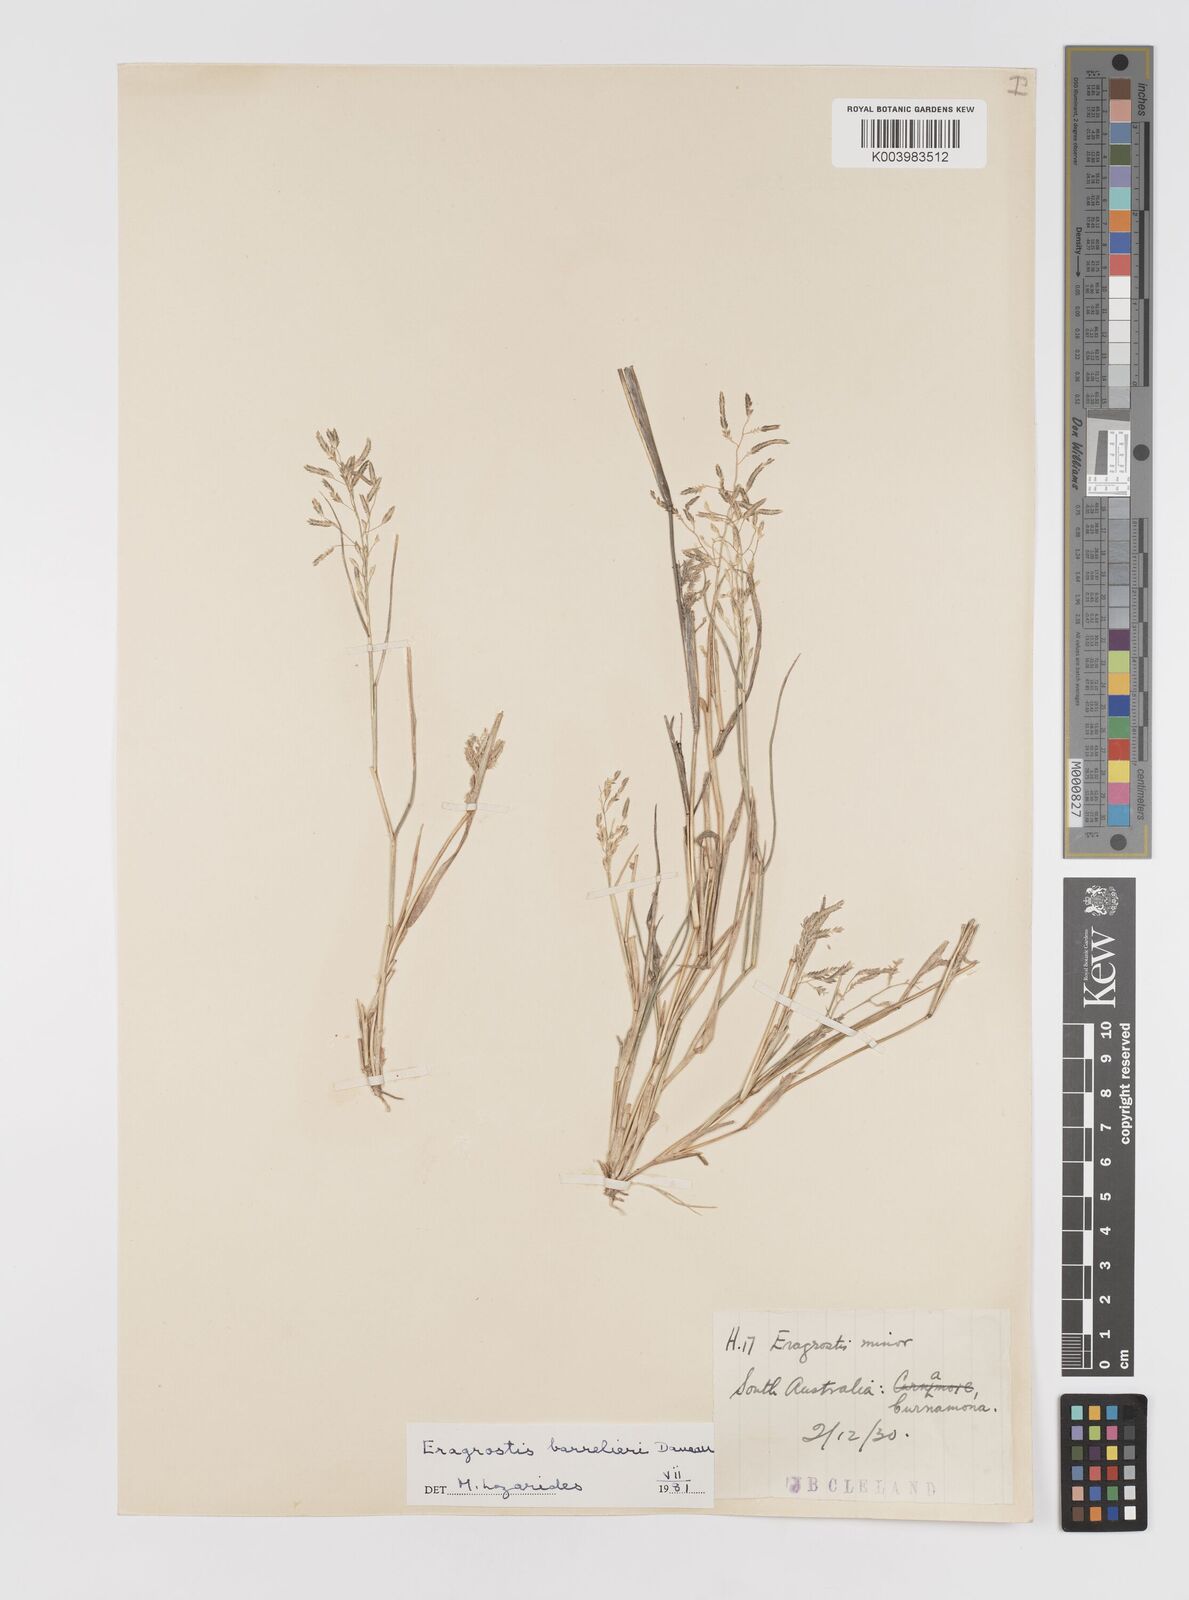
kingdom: Plantae
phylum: Tracheophyta
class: Liliopsida
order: Poales
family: Poaceae
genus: Eragrostis
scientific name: Eragrostis barrelieri
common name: Mediterranean lovegrass
